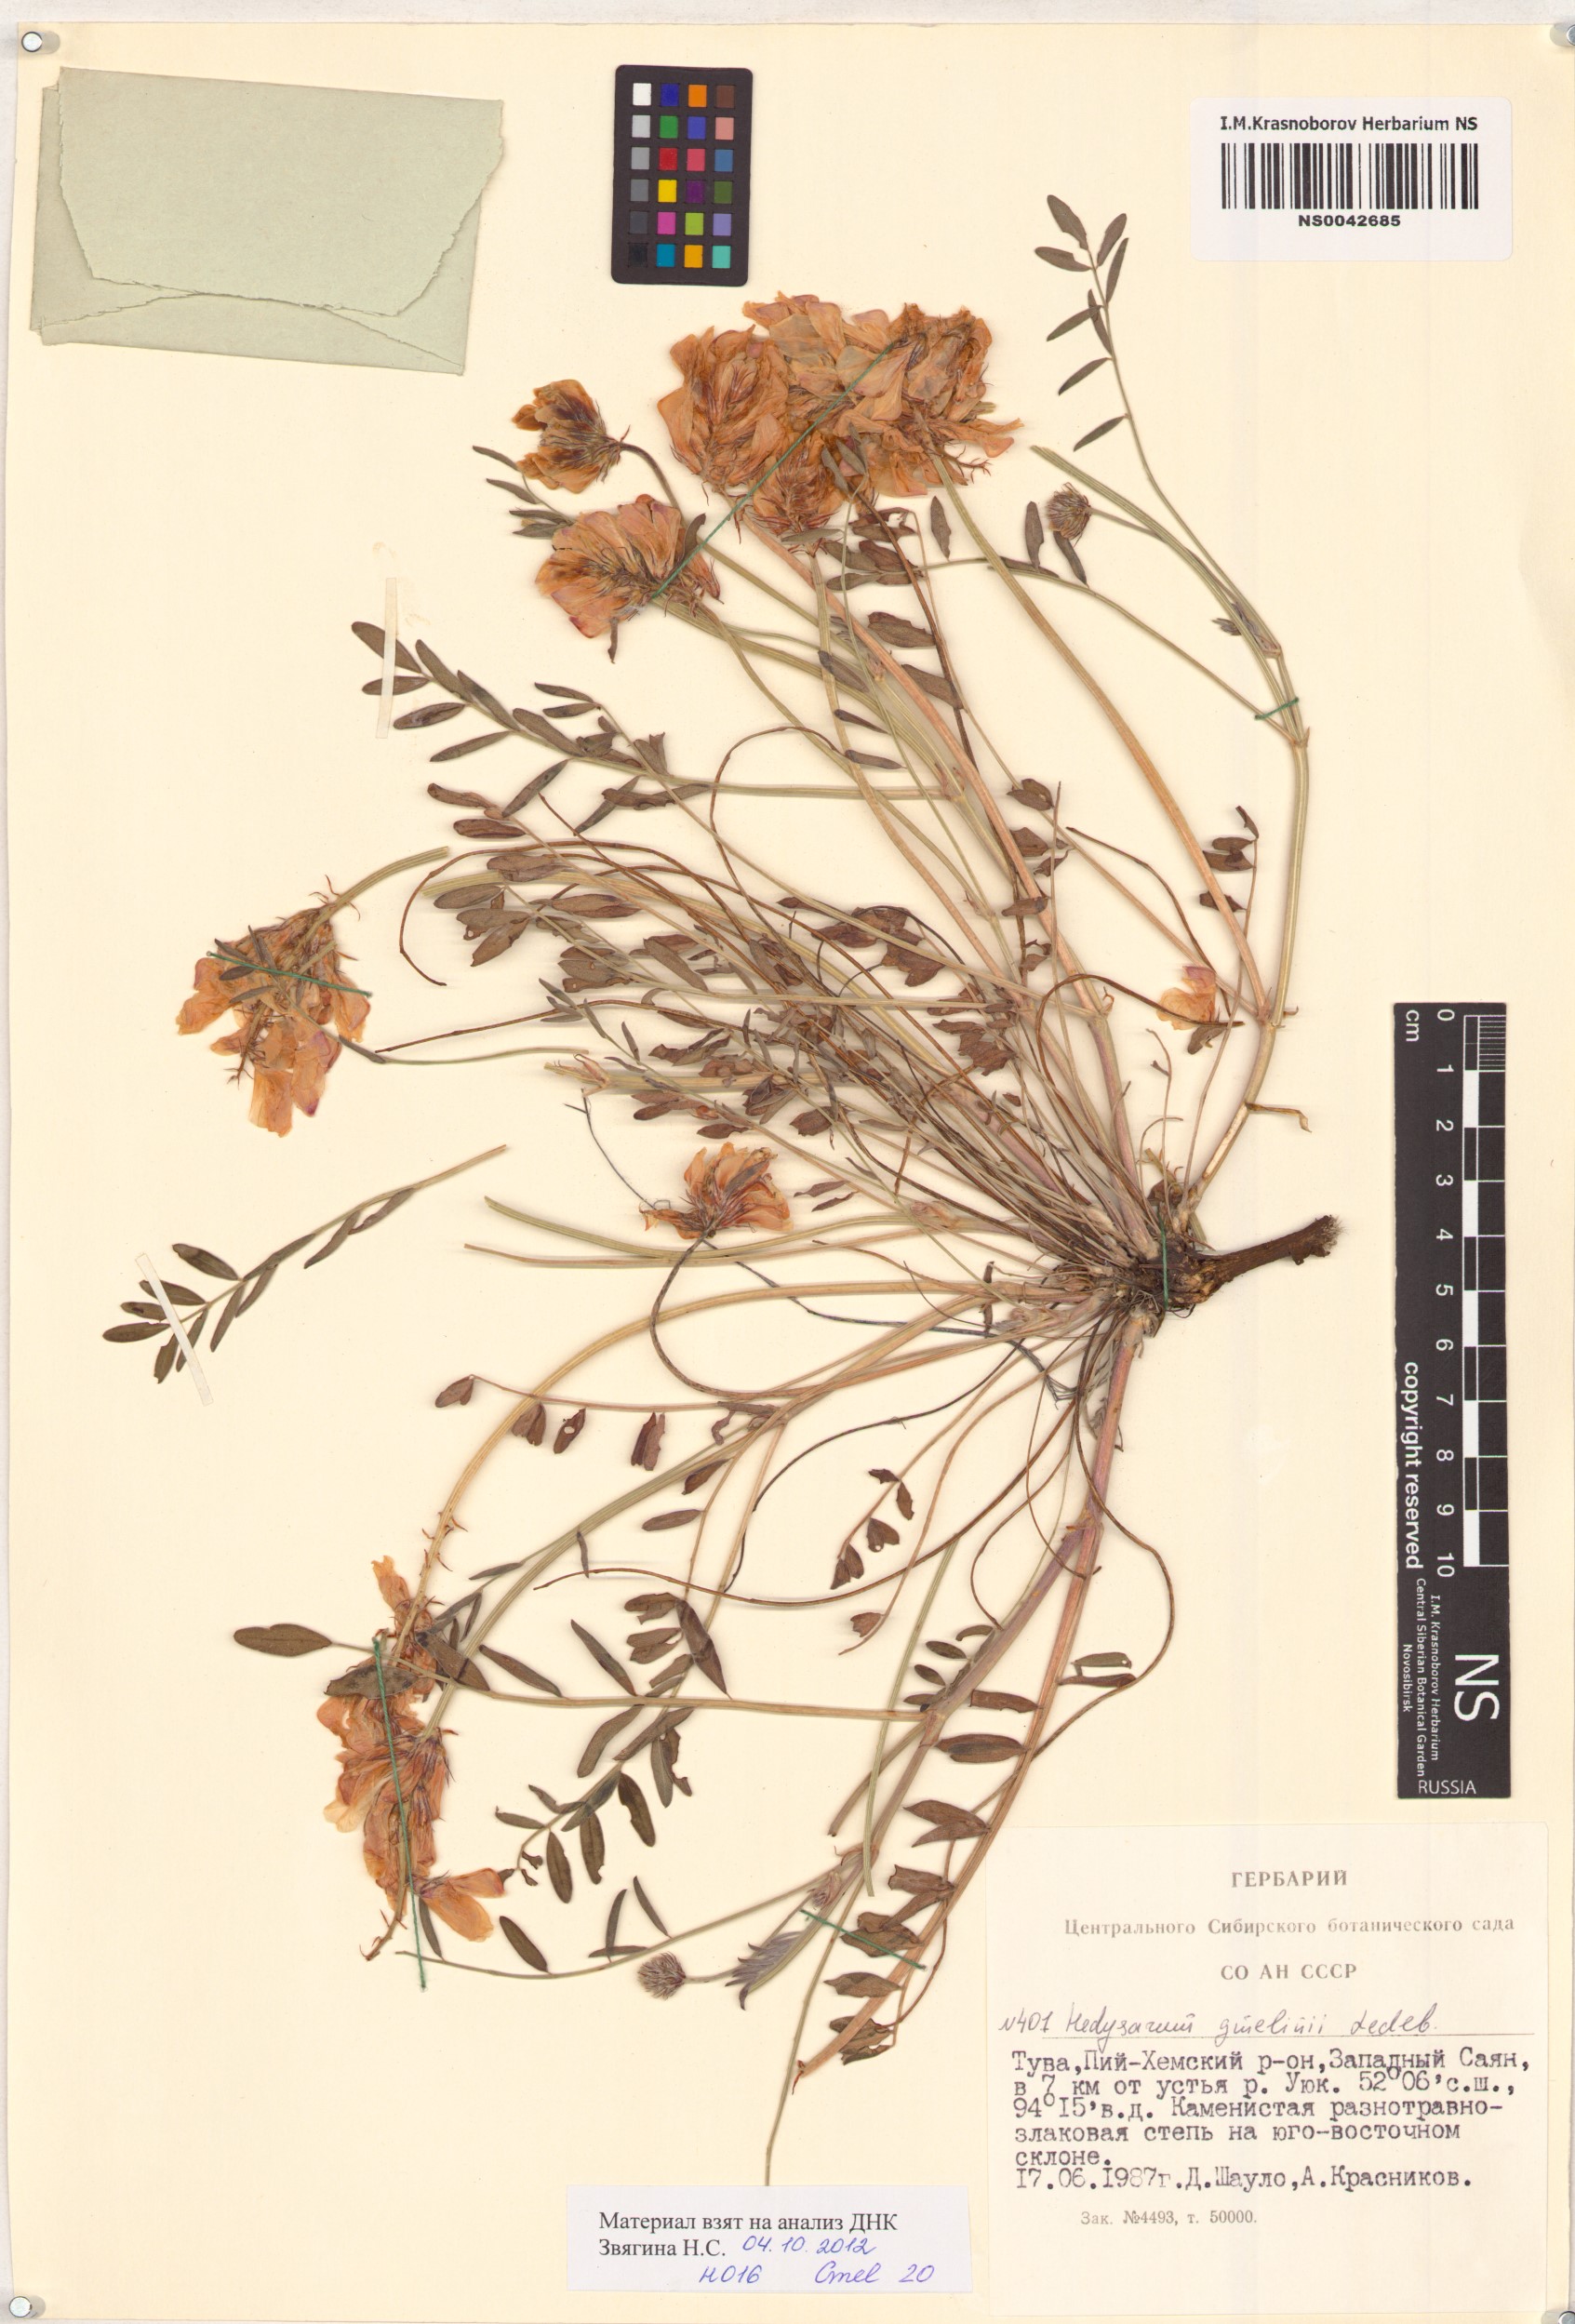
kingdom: Plantae
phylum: Tracheophyta
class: Magnoliopsida
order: Fabales
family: Fabaceae
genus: Hedysarum
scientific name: Hedysarum gmelinii
